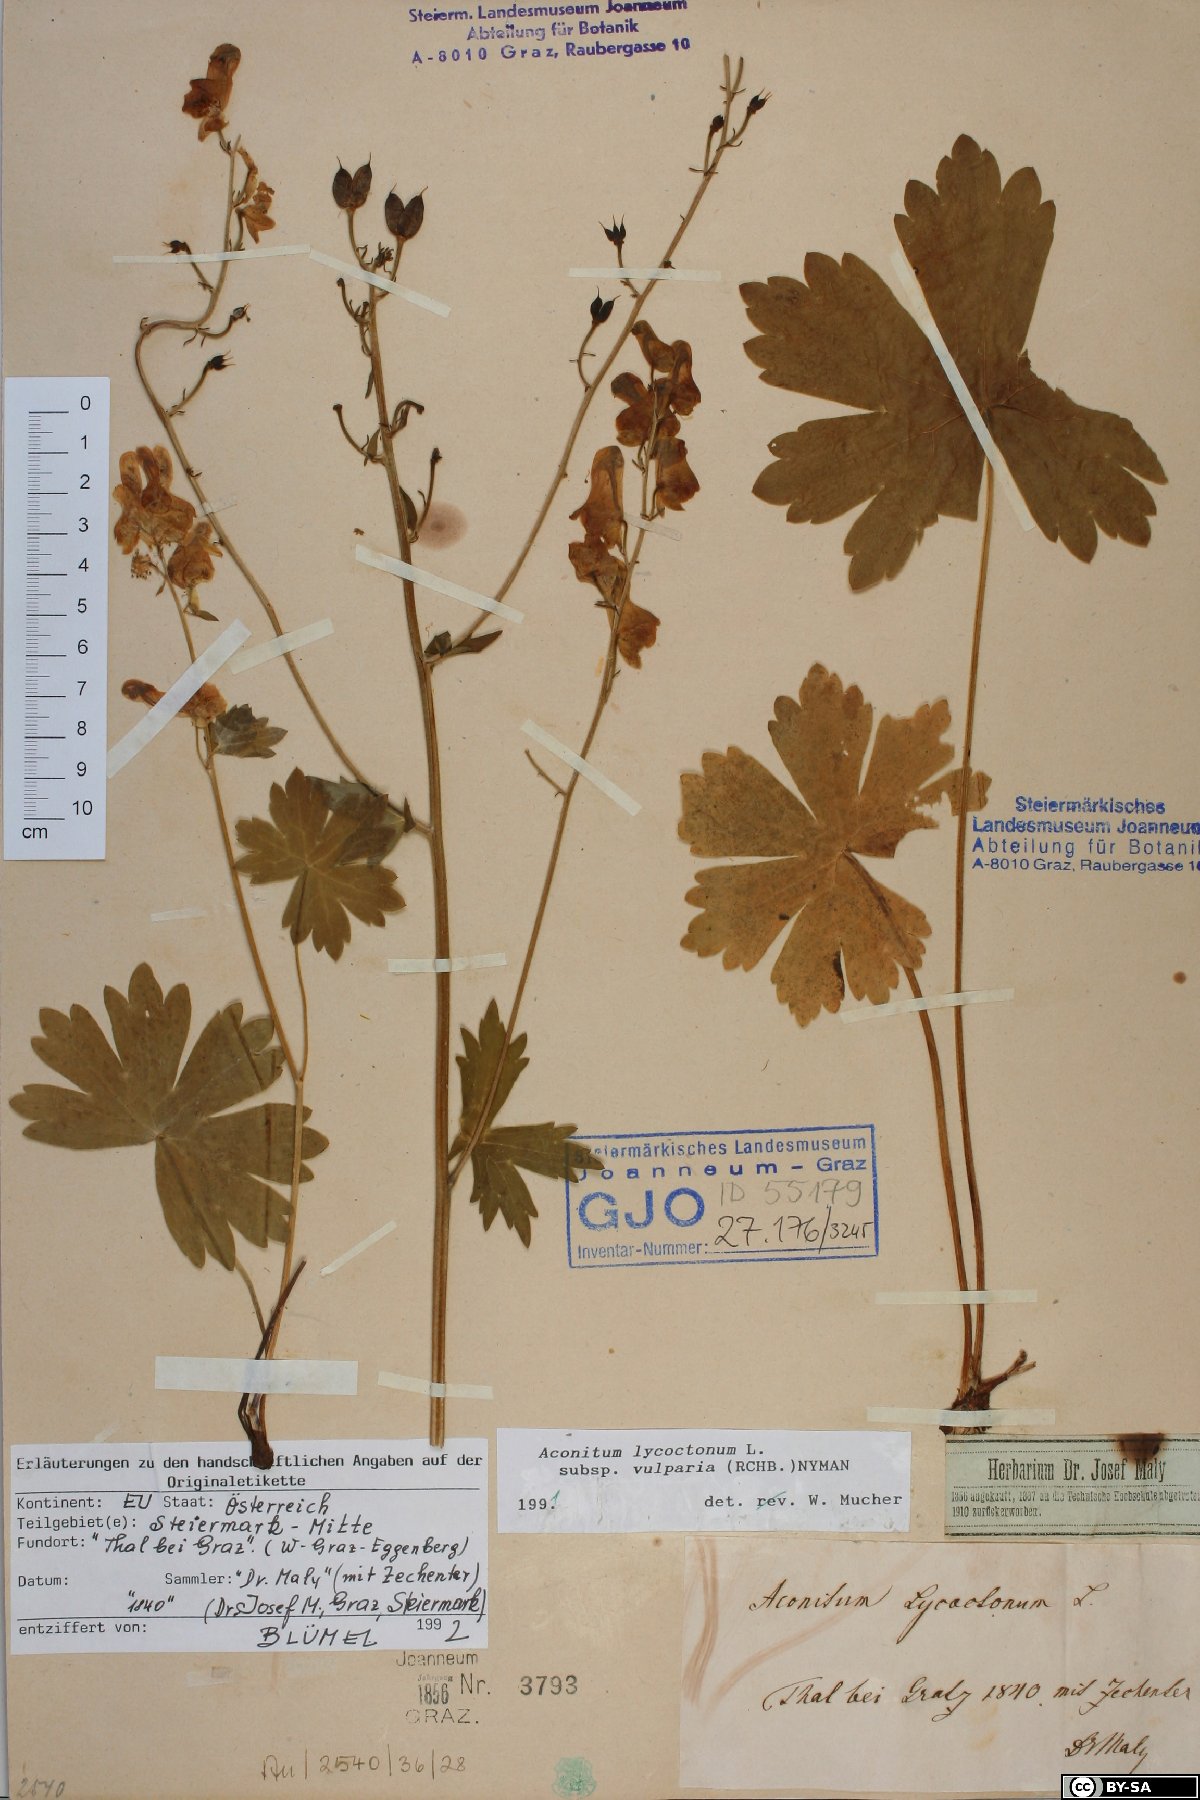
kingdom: Plantae
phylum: Tracheophyta
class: Magnoliopsida
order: Ranunculales
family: Ranunculaceae
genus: Aconitum
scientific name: Aconitum lycoctonum
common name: Wolf's-bane
